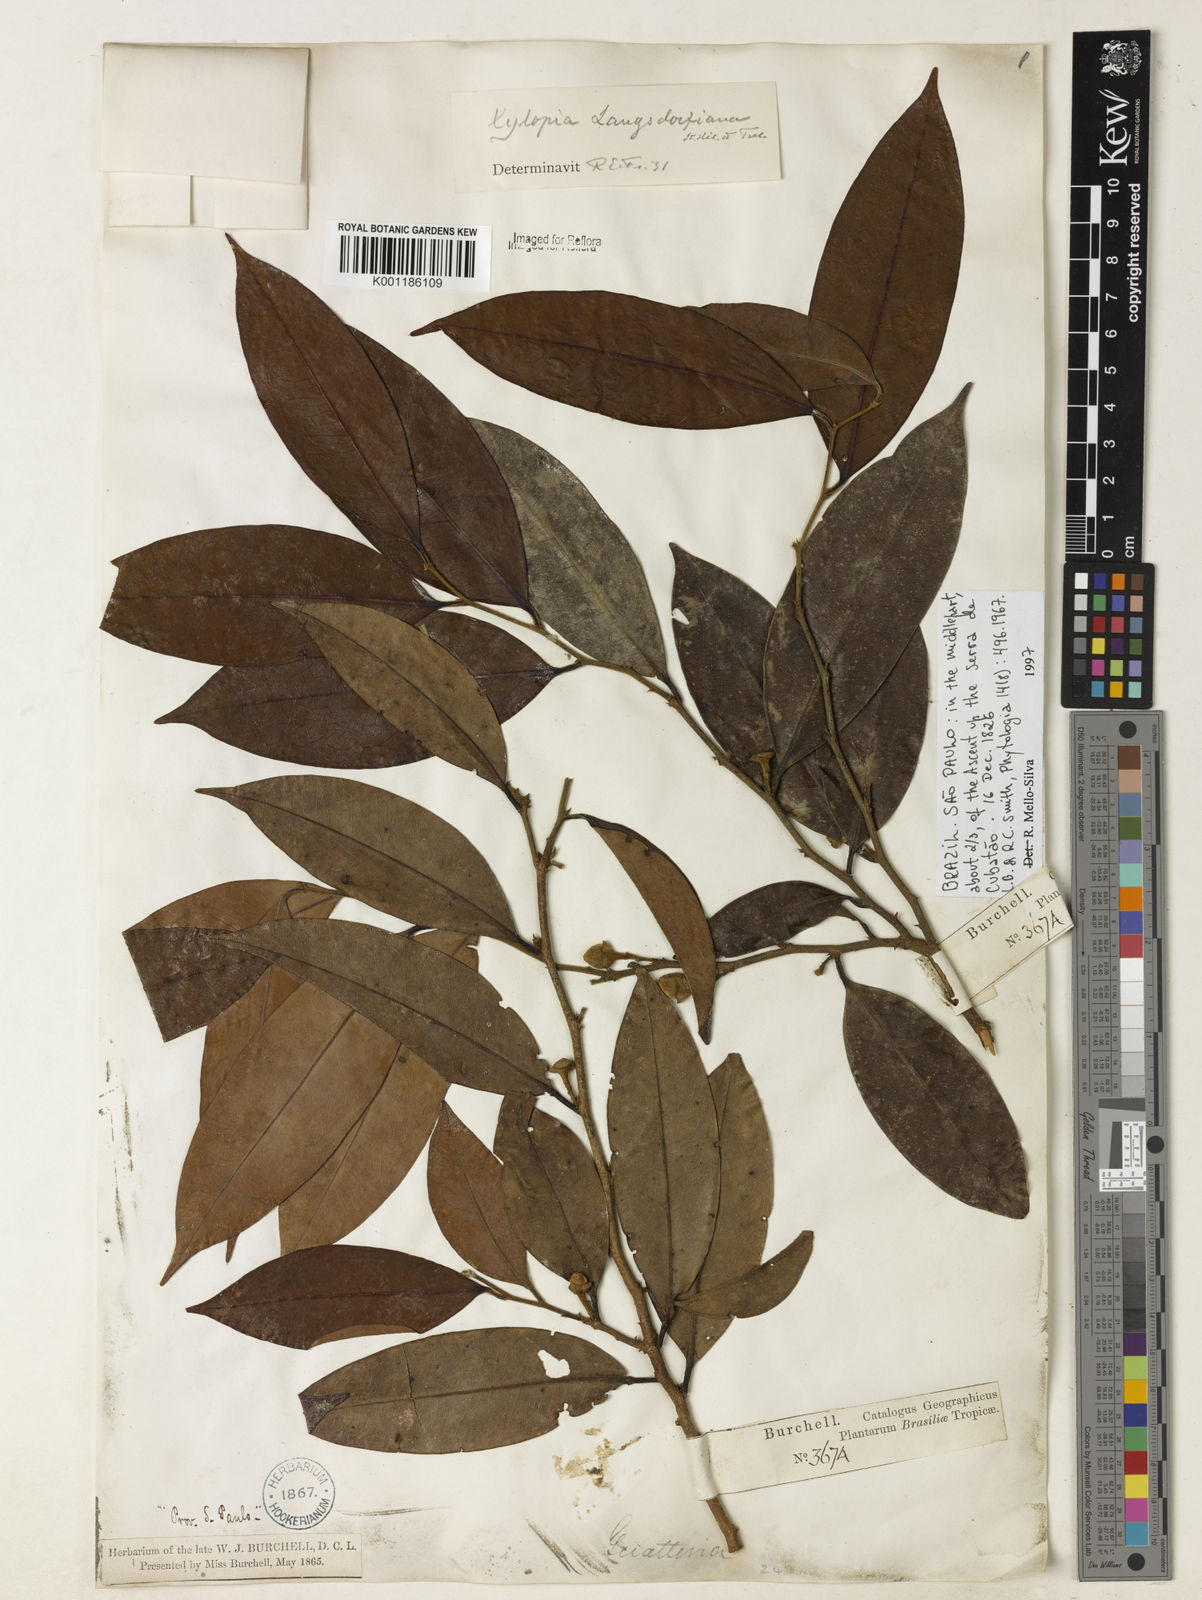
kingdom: Plantae
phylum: Tracheophyta
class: Magnoliopsida
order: Magnoliales
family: Annonaceae
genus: Xylopia
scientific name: Xylopia langsdorfiana
